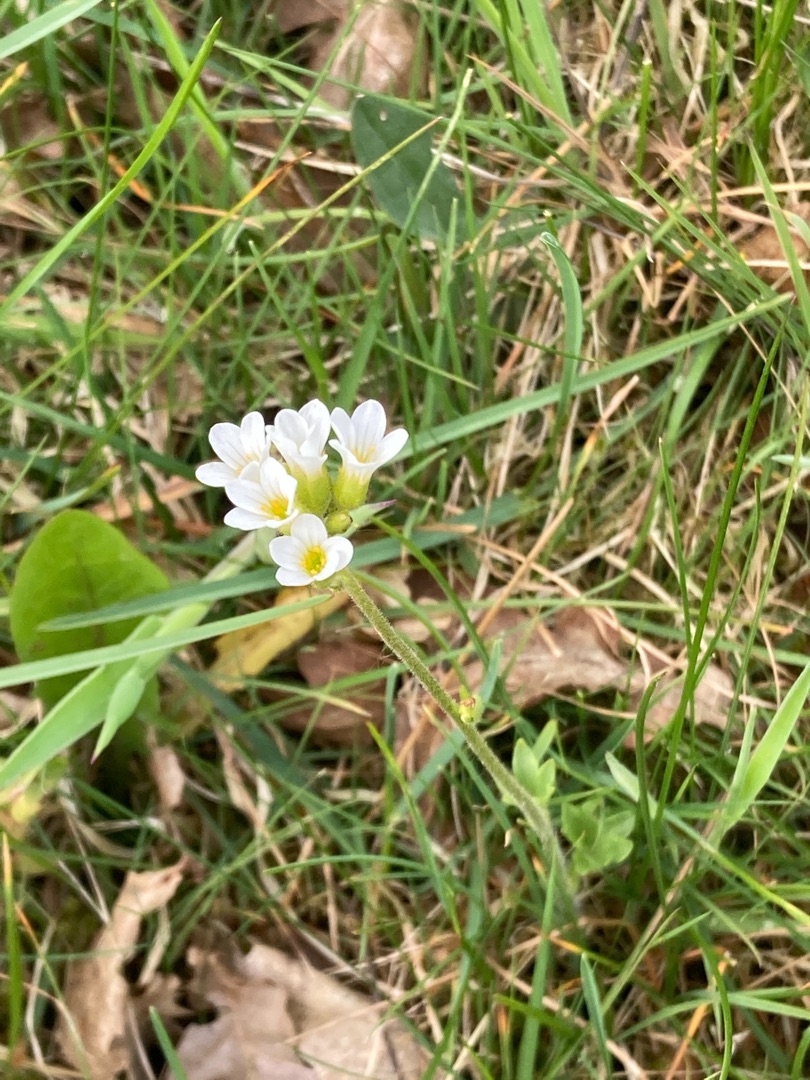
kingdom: Plantae
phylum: Tracheophyta
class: Magnoliopsida
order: Saxifragales
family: Saxifragaceae
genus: Saxifraga
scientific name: Saxifraga granulata
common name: Kornet stenbræk
